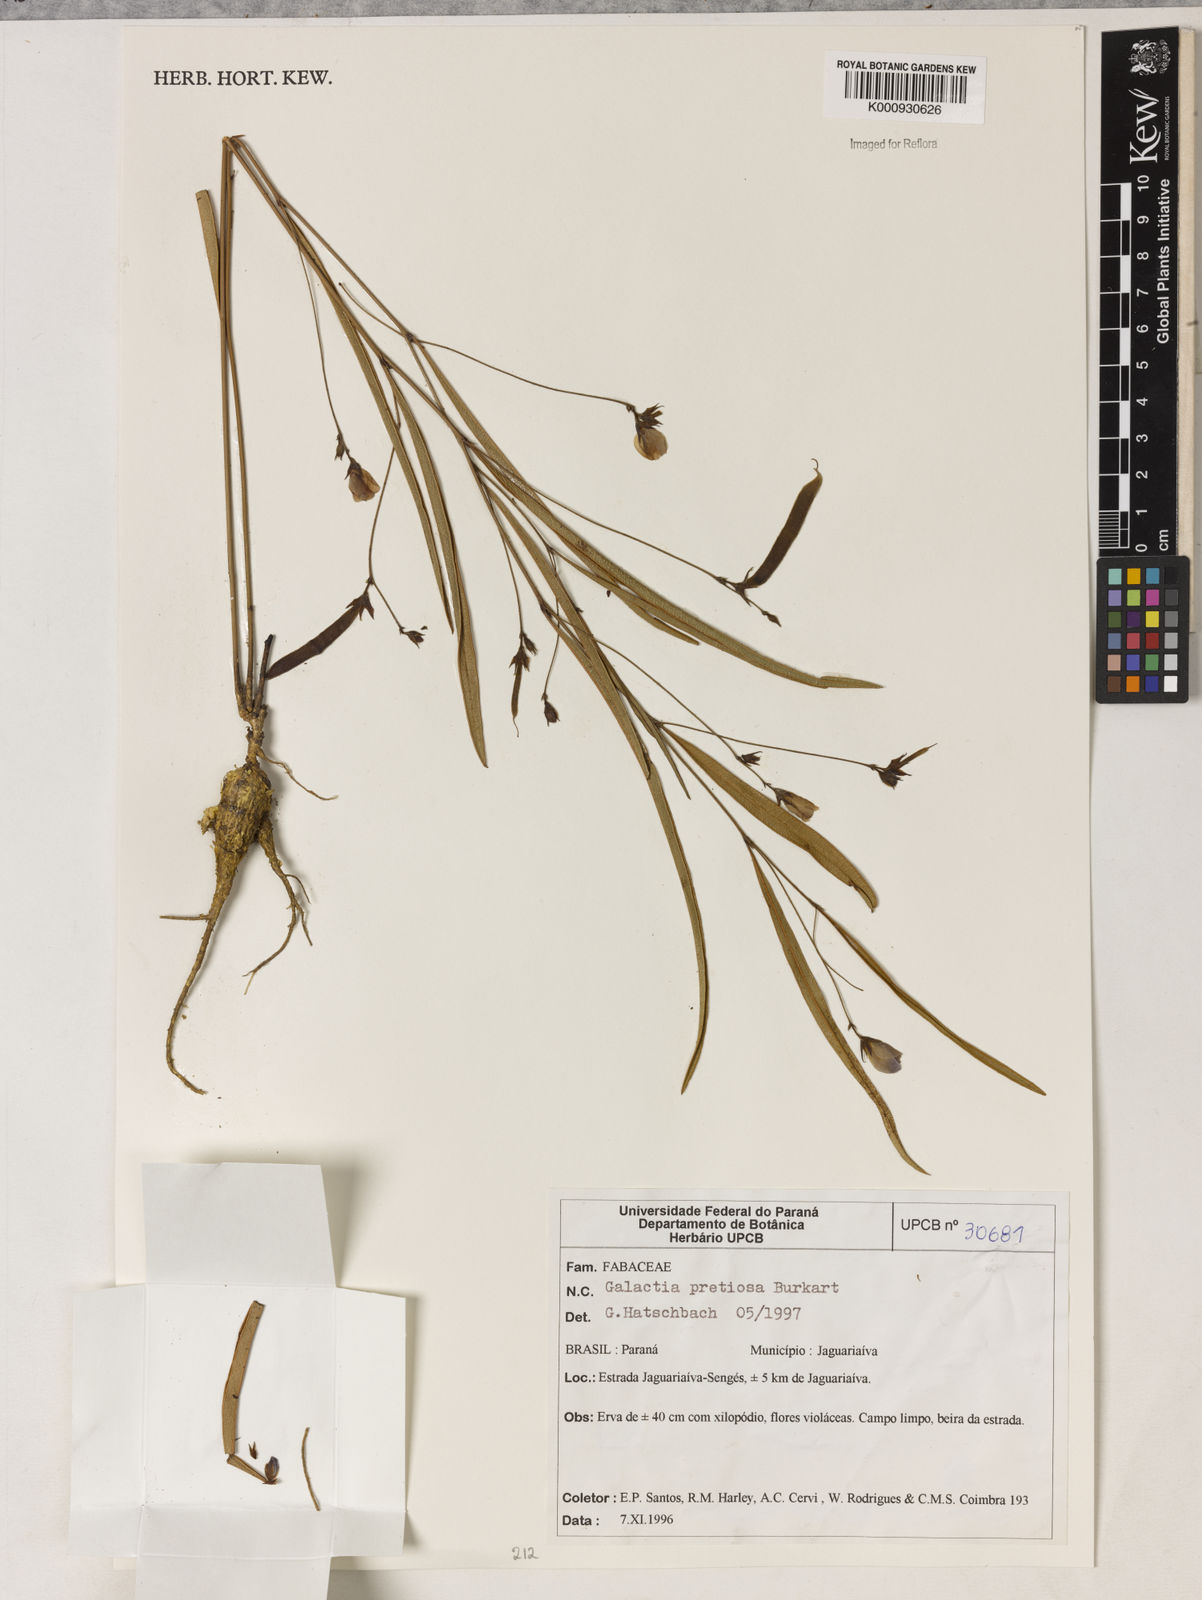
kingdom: Plantae
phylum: Tracheophyta
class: Magnoliopsida
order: Fabales
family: Fabaceae
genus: Nanogalactia
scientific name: Nanogalactia pretiosa
